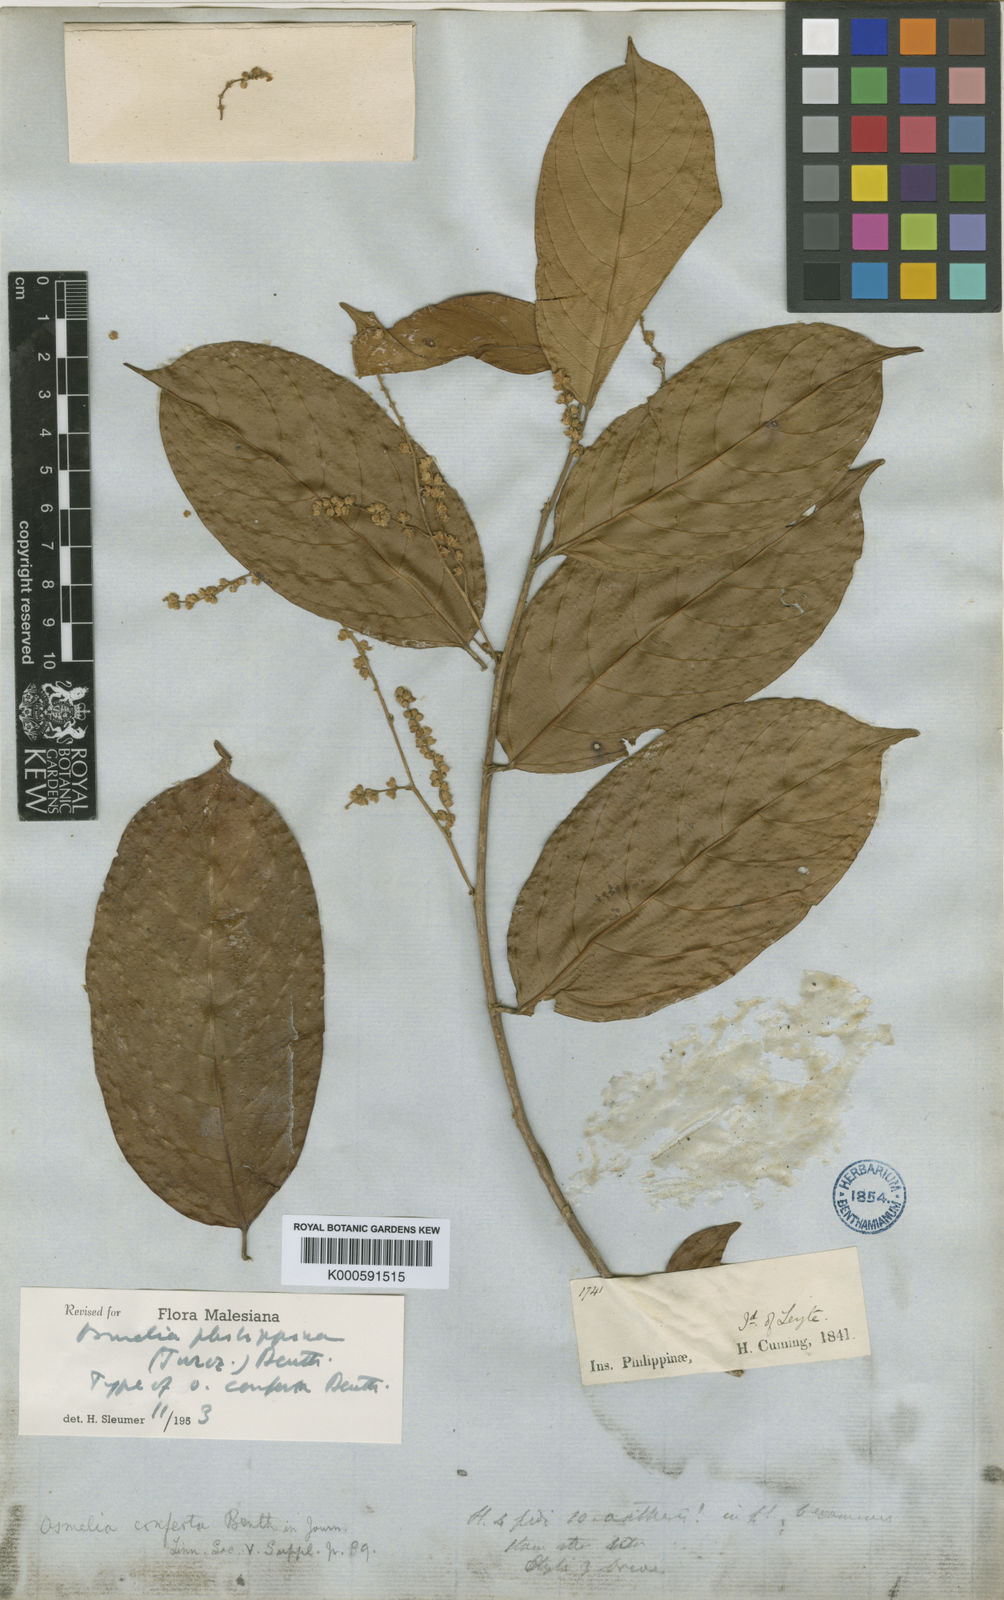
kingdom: Plantae
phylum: Tracheophyta
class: Magnoliopsida
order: Malpighiales
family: Salicaceae
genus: Osmelia
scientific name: Osmelia
